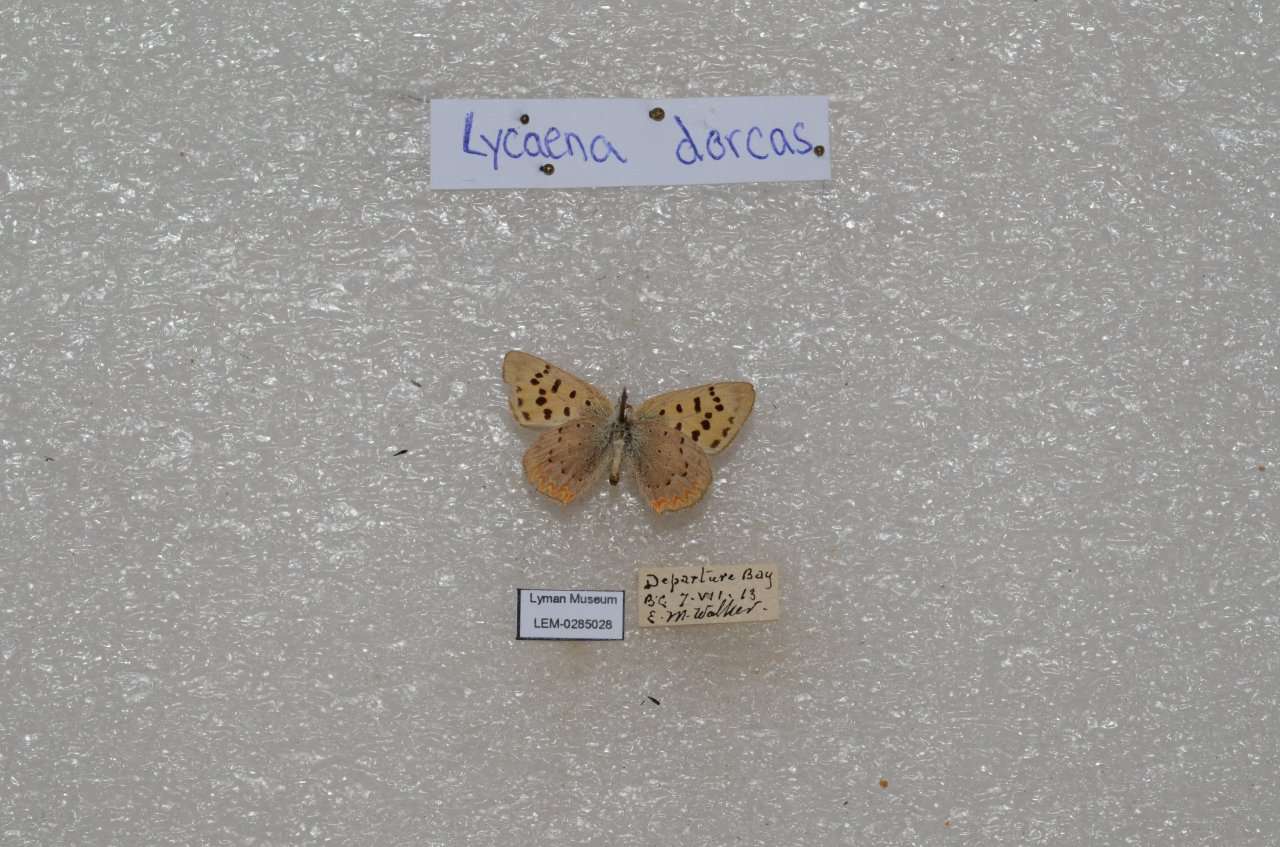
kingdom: Animalia
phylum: Arthropoda
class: Insecta
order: Lepidoptera
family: Lycaenidae
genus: Epidemia
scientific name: Epidemia dorcas
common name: Dorcas Copper
